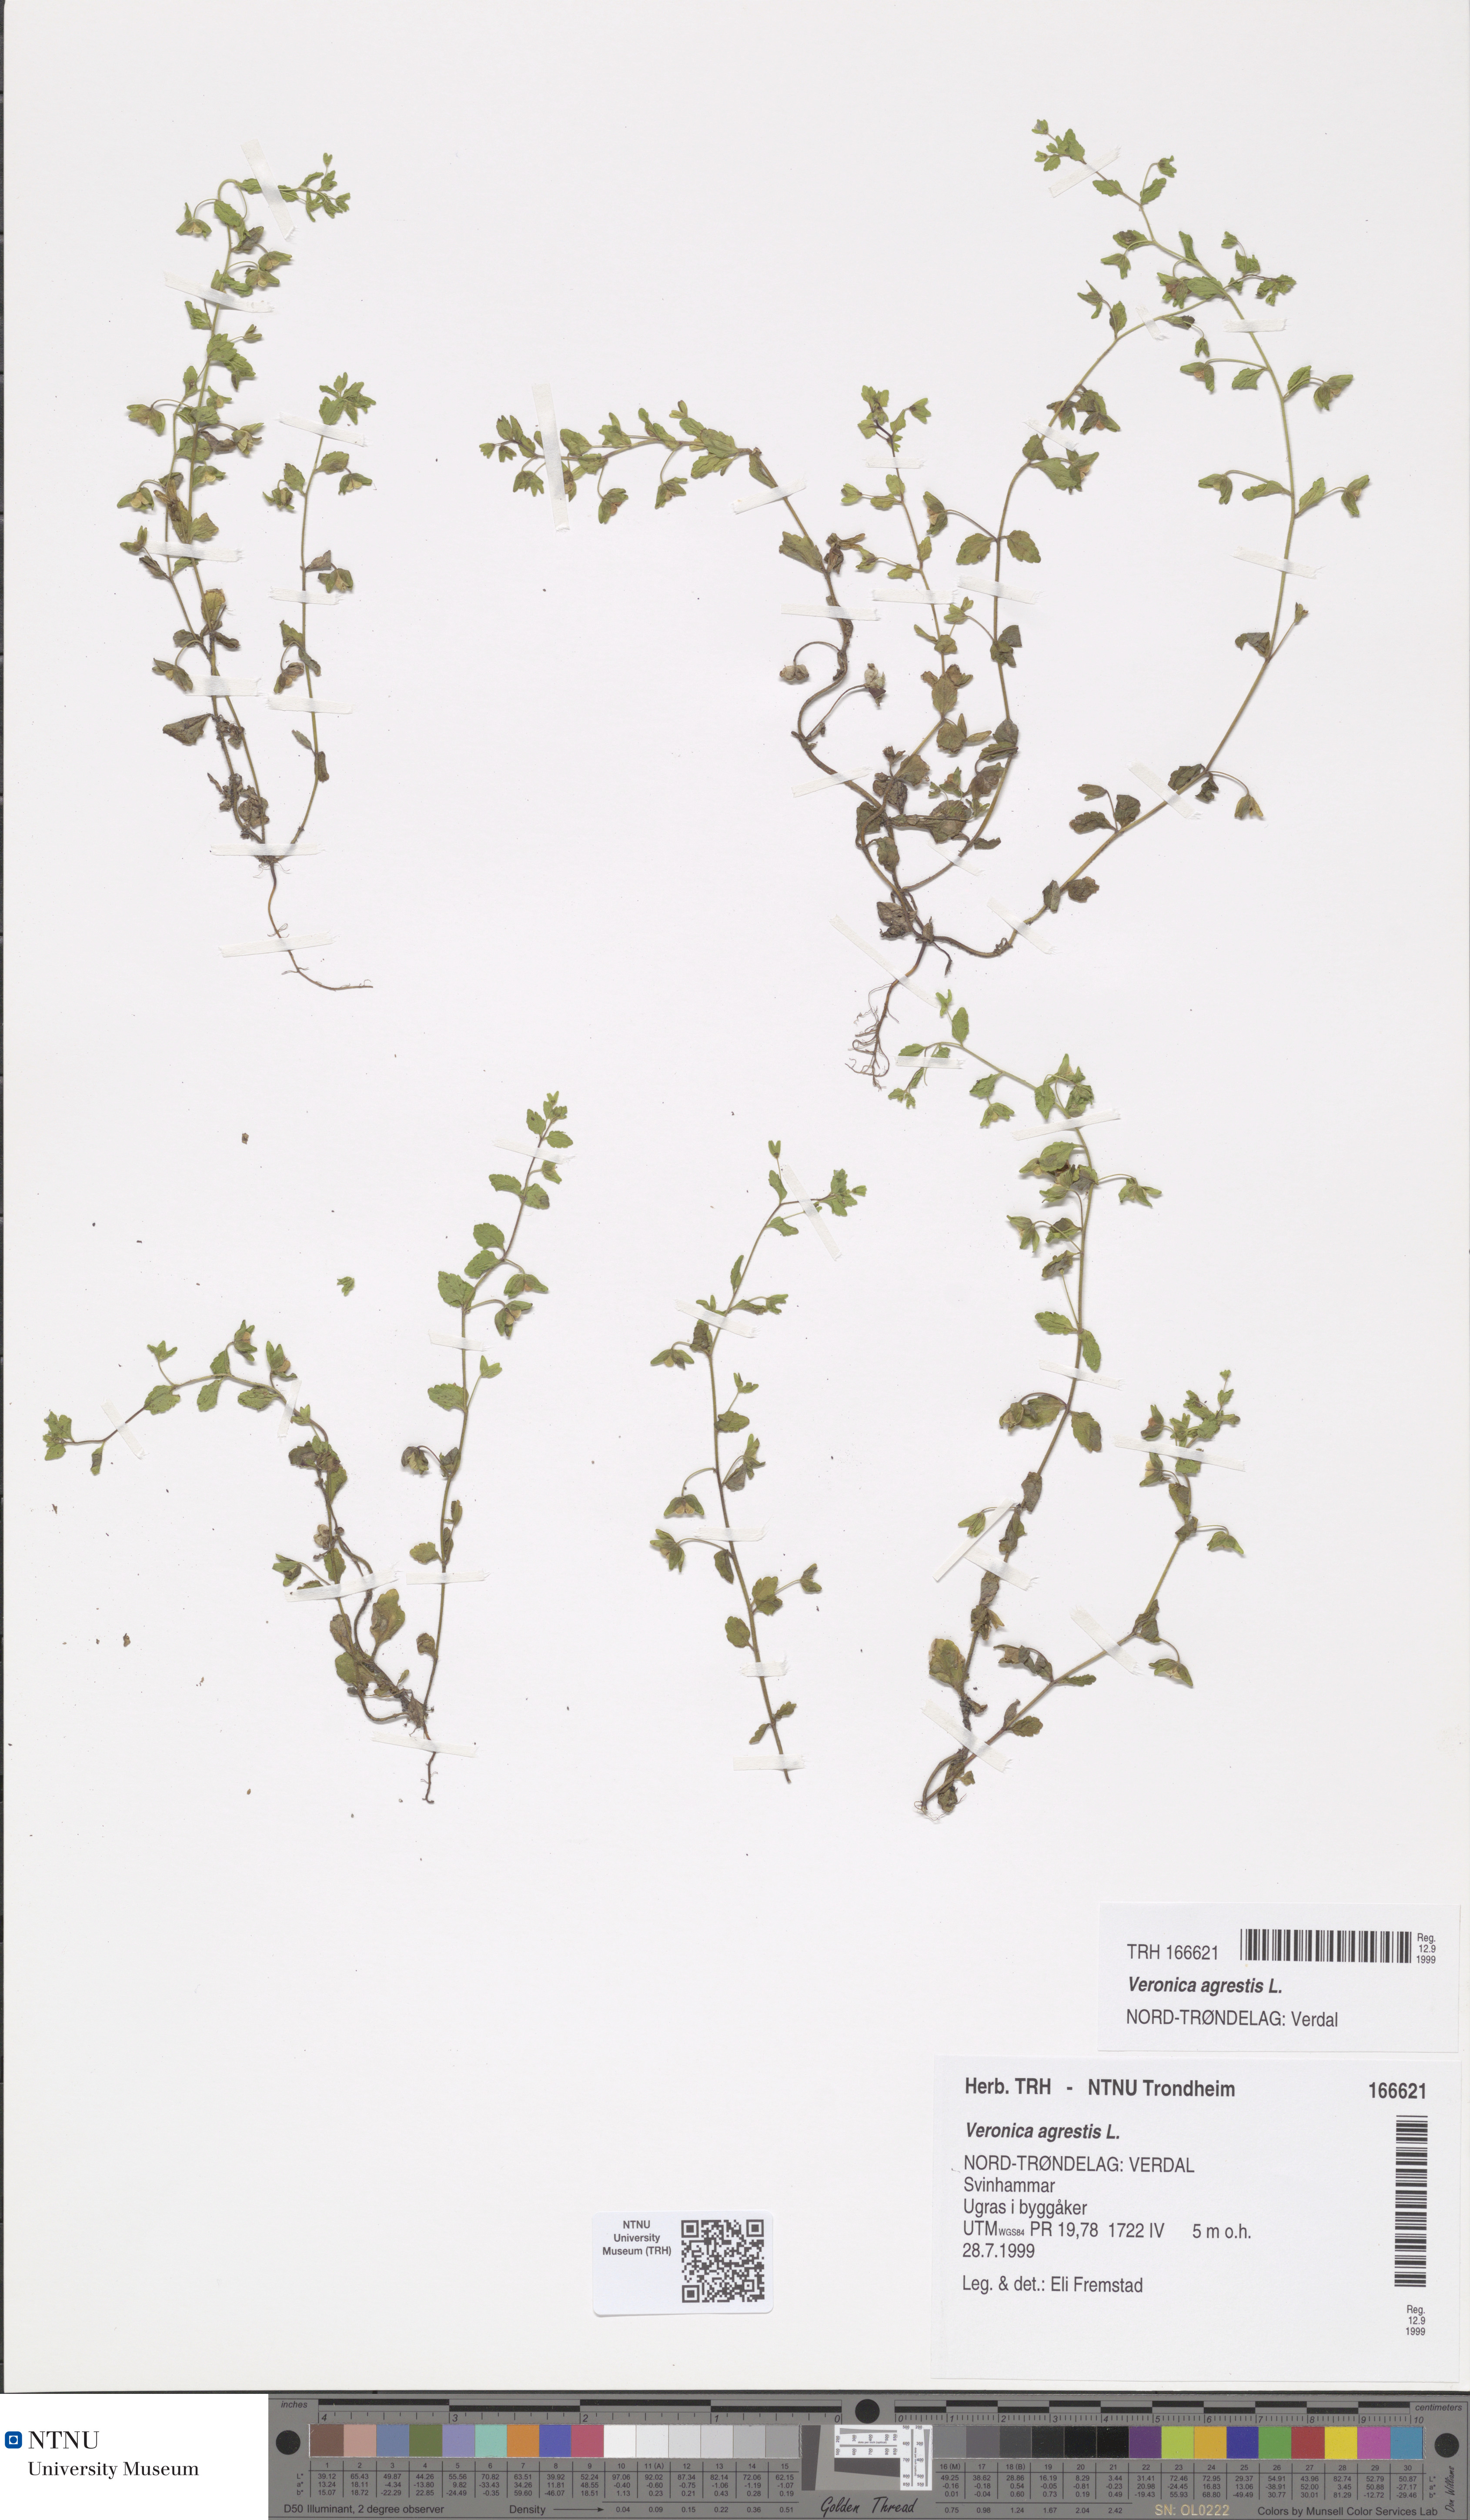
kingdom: Plantae
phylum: Tracheophyta
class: Magnoliopsida
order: Lamiales
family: Plantaginaceae
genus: Veronica
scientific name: Veronica agrestis
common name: Green field-speedwell
